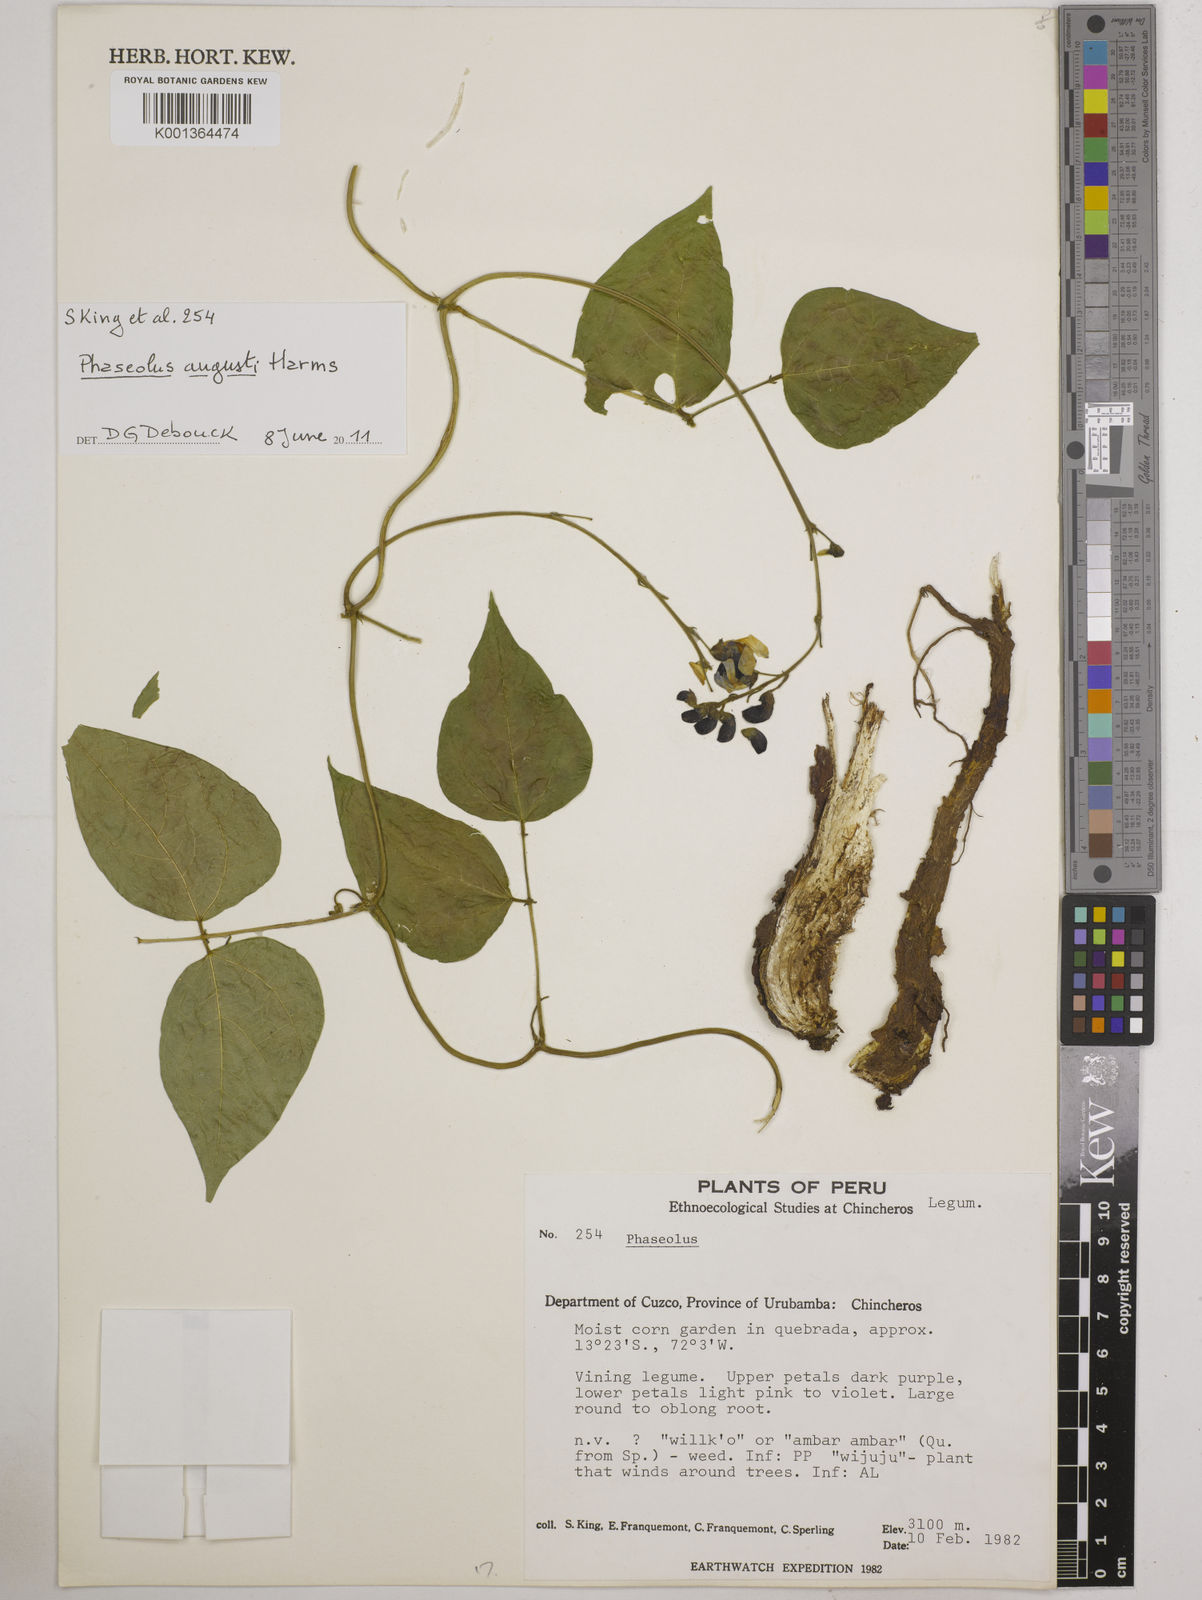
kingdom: Plantae
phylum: Tracheophyta
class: Magnoliopsida
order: Fabales
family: Fabaceae
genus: Phaseolus
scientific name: Phaseolus augusti
